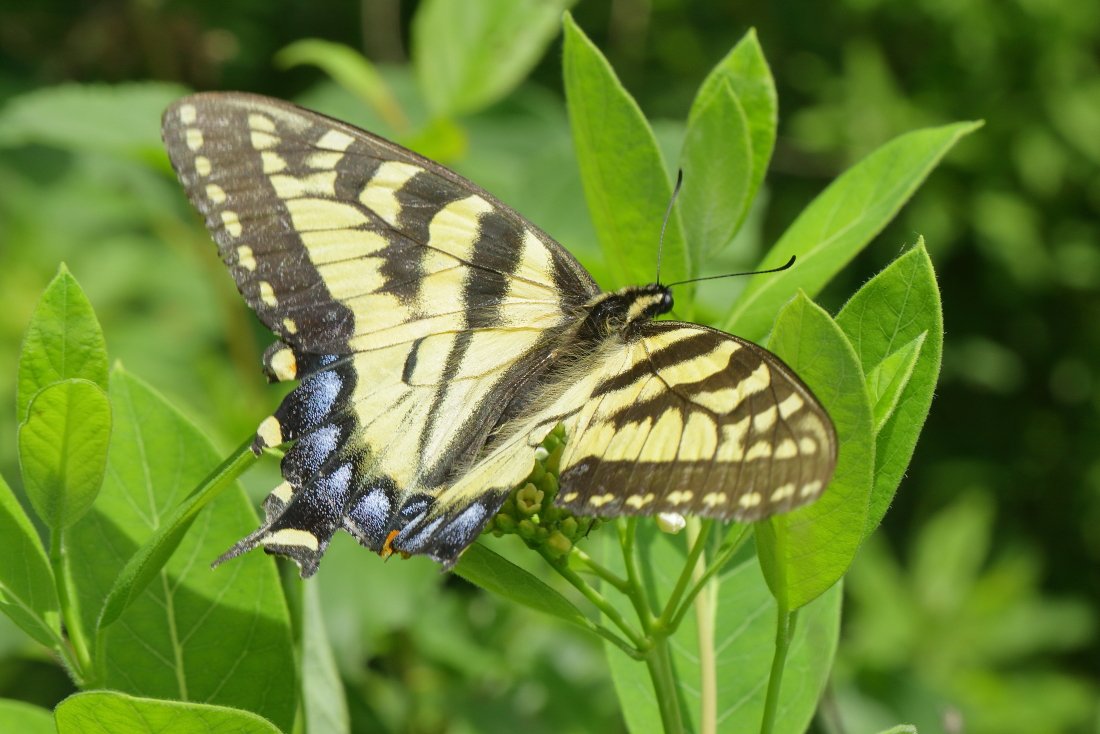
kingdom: Animalia
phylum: Arthropoda
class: Insecta
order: Lepidoptera
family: Papilionidae
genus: Pterourus
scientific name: Pterourus glaucus
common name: Eastern Tiger Swallowtail
